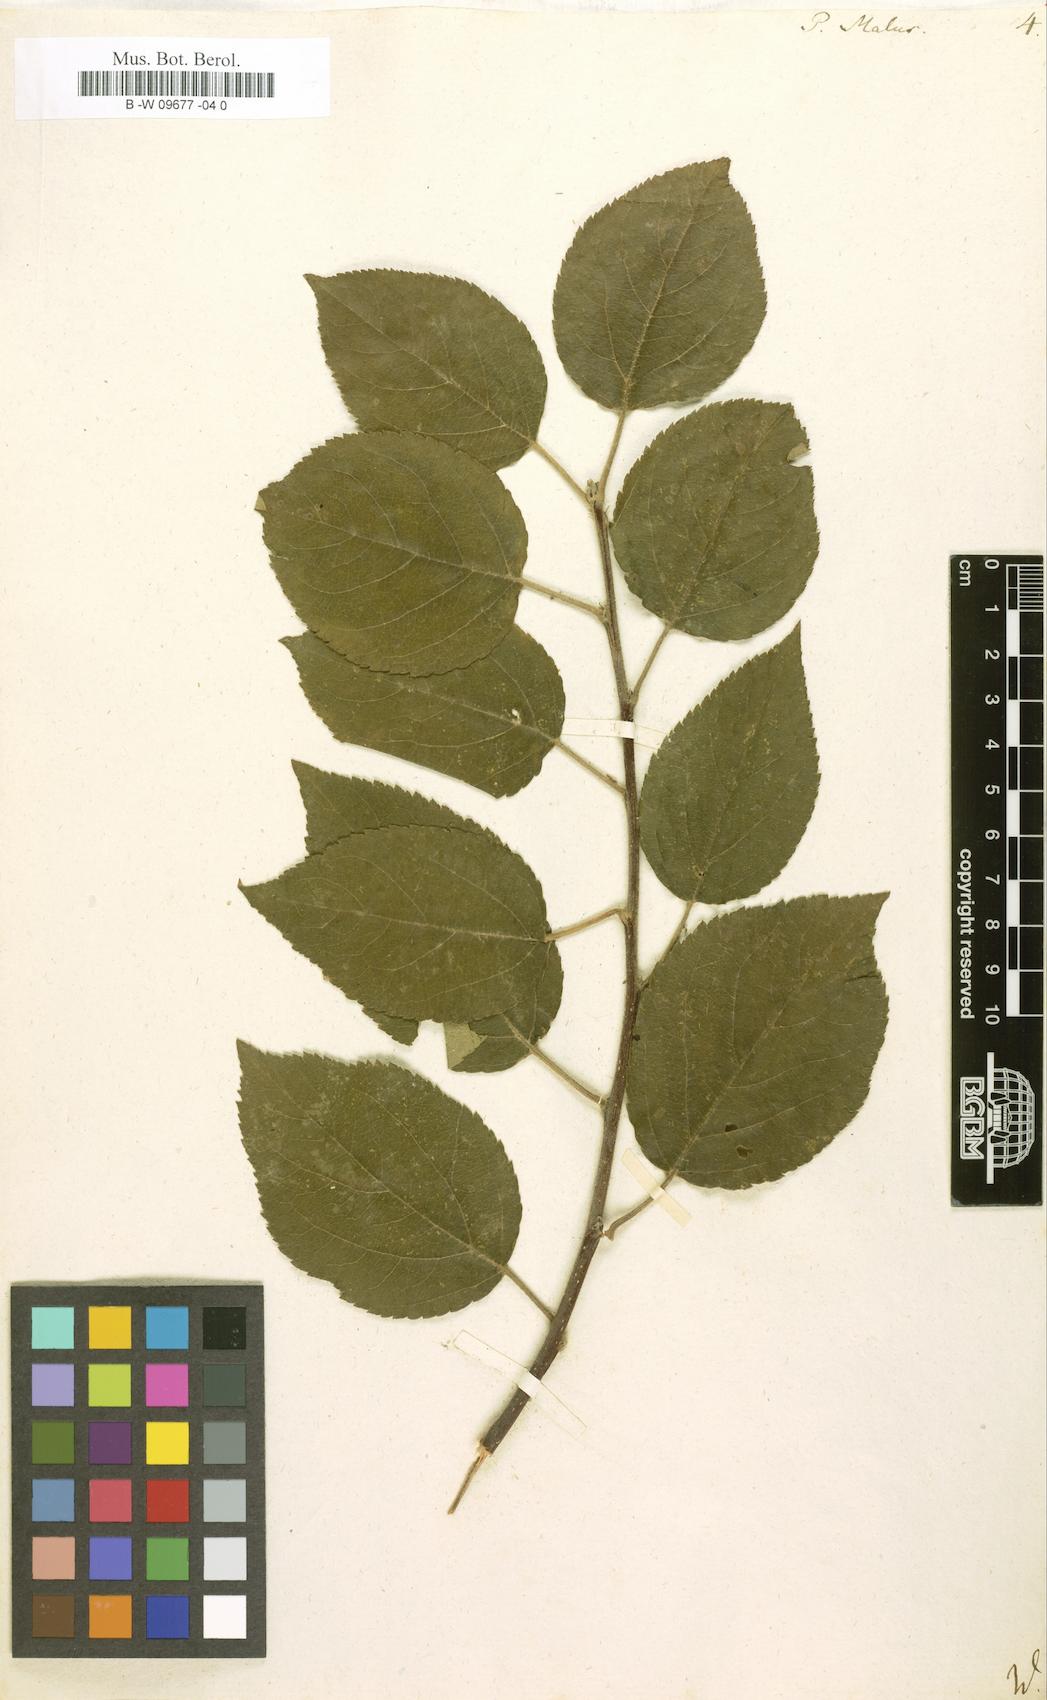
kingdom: Plantae
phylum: Tracheophyta
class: Magnoliopsida
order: Rosales
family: Rosaceae
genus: Malus
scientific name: Malus
